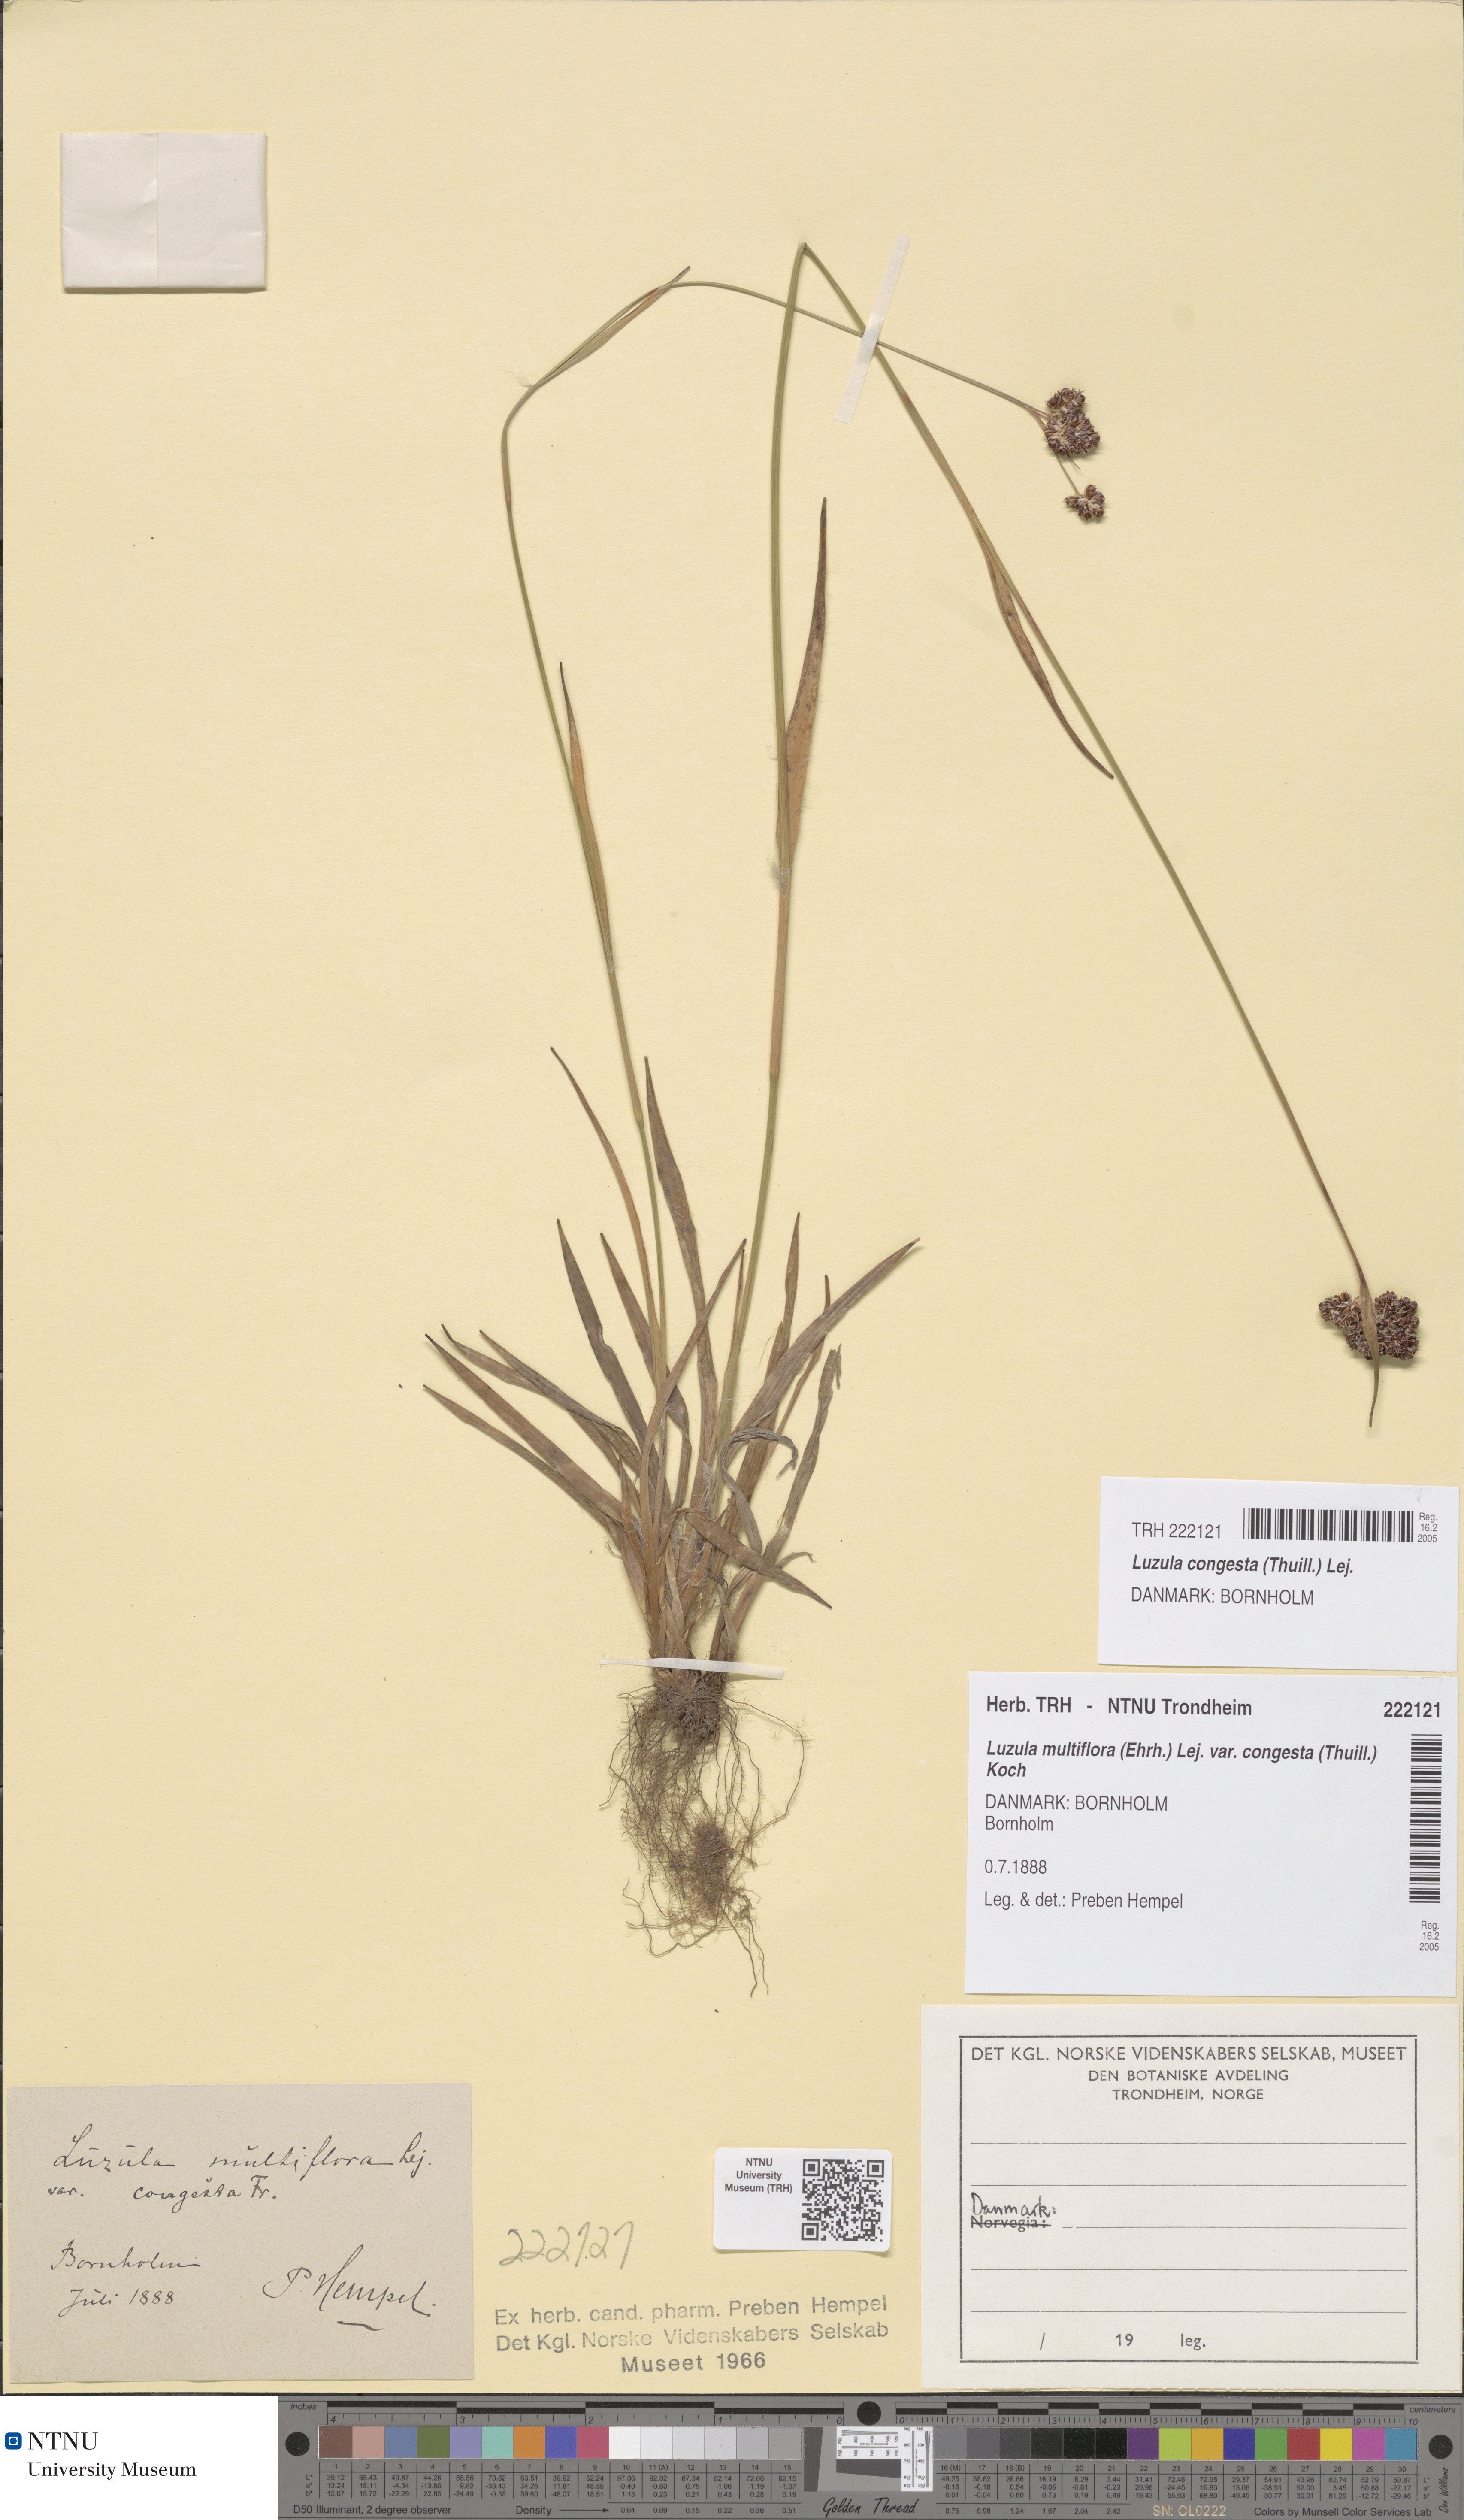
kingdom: Plantae
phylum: Tracheophyta
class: Liliopsida
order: Poales
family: Juncaceae
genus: Luzula
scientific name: Luzula congesta
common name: Heath woodrush
